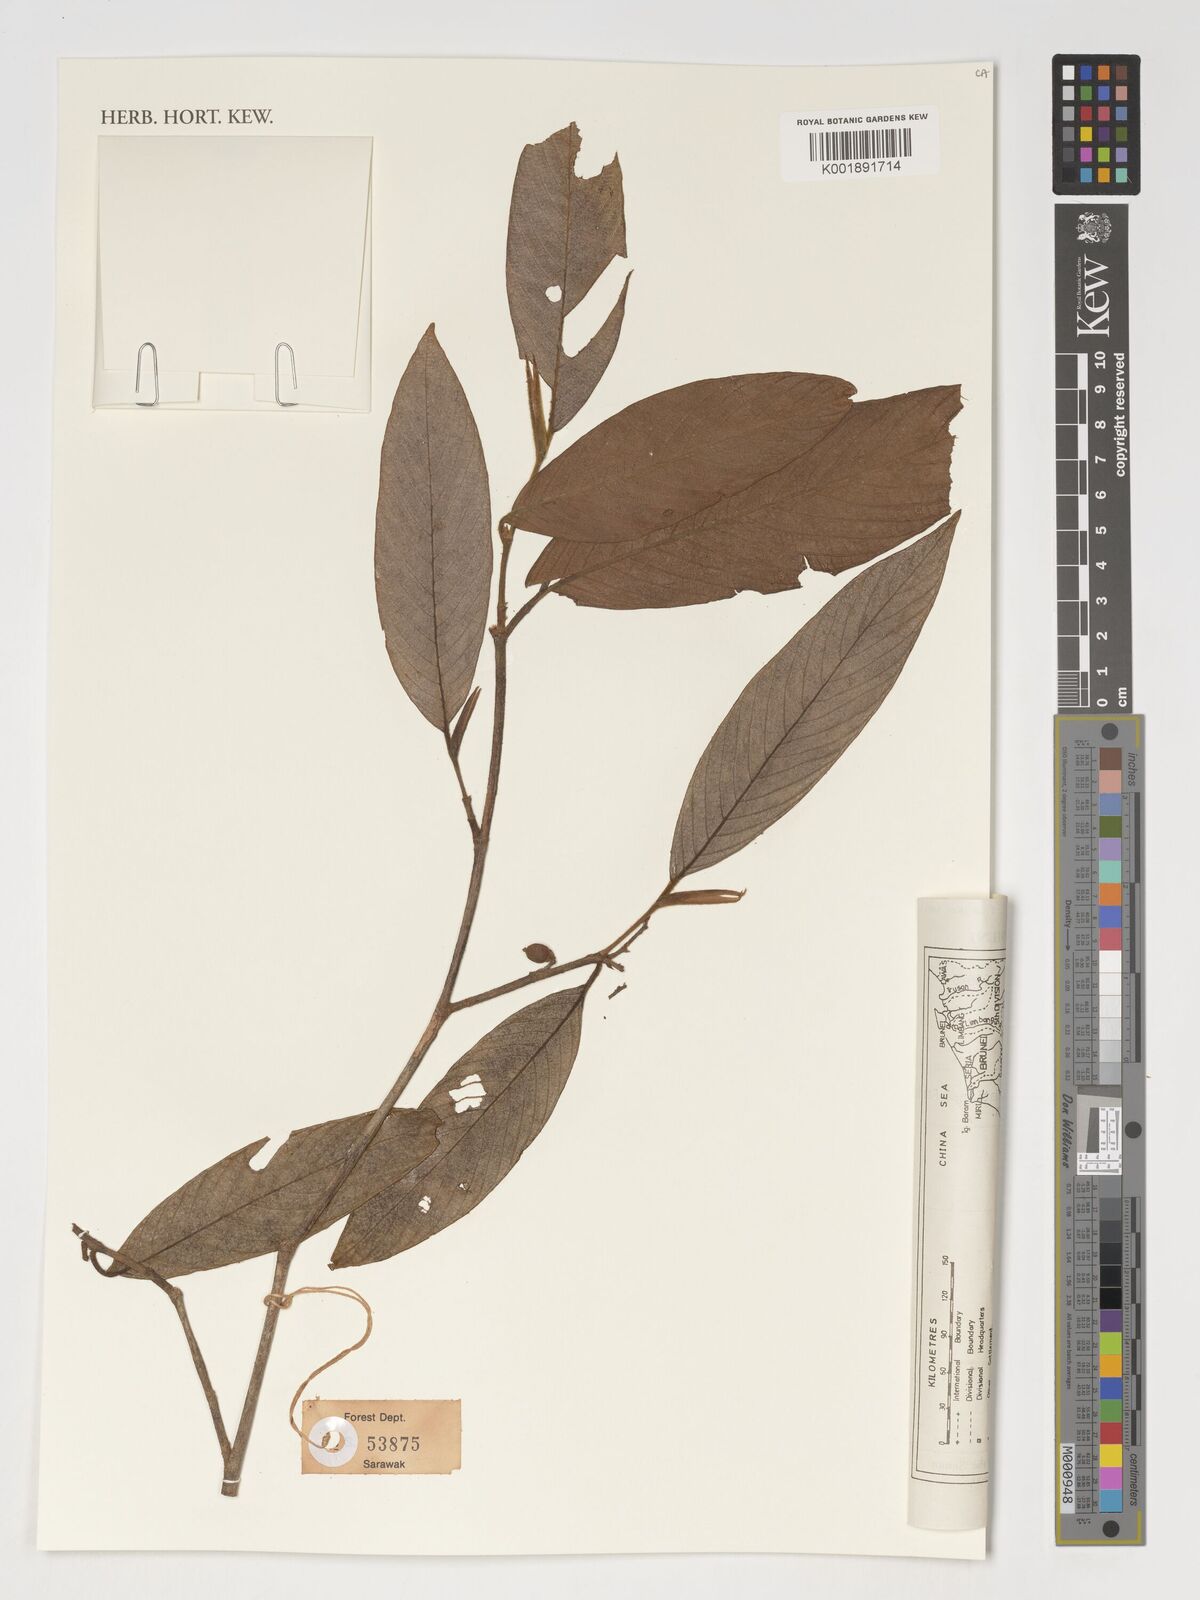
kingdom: Plantae
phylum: Tracheophyta
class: Magnoliopsida
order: Rosales
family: Cannabaceae
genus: Gironniera
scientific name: Gironniera
